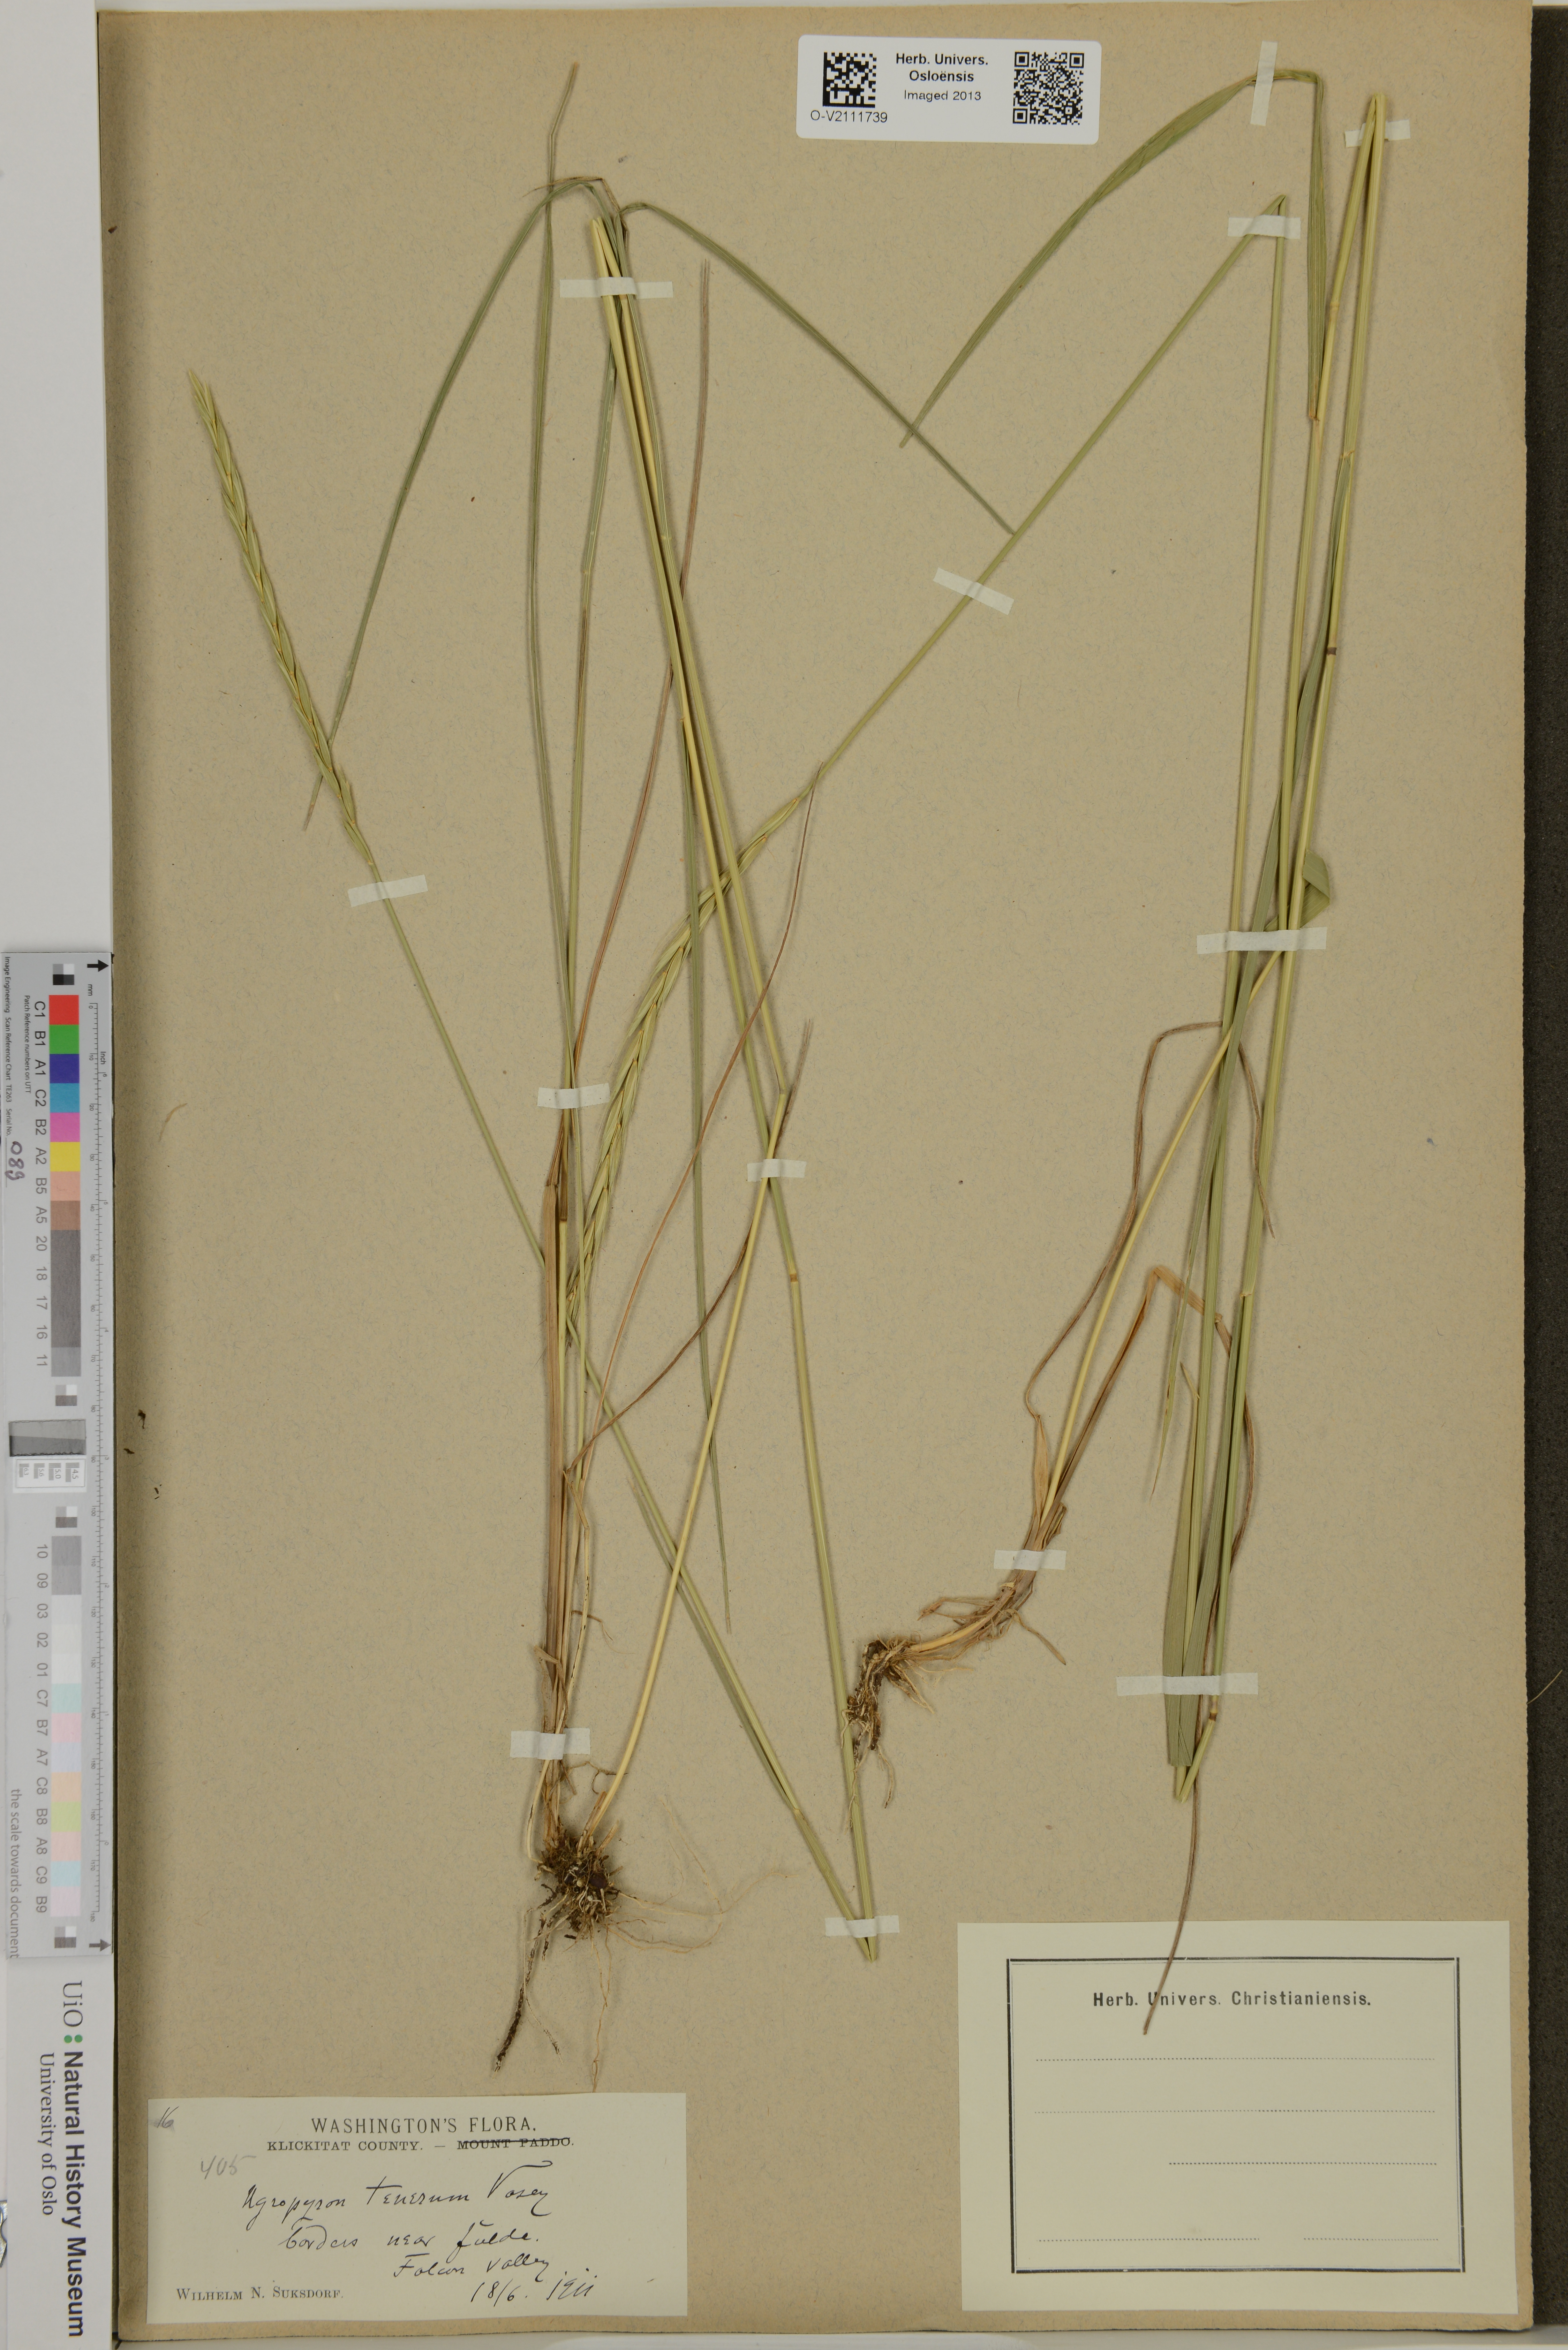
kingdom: Plantae
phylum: Tracheophyta
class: Liliopsida
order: Poales
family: Poaceae
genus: Elymus
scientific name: Elymus violaceus
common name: Arctic wheatgrass
